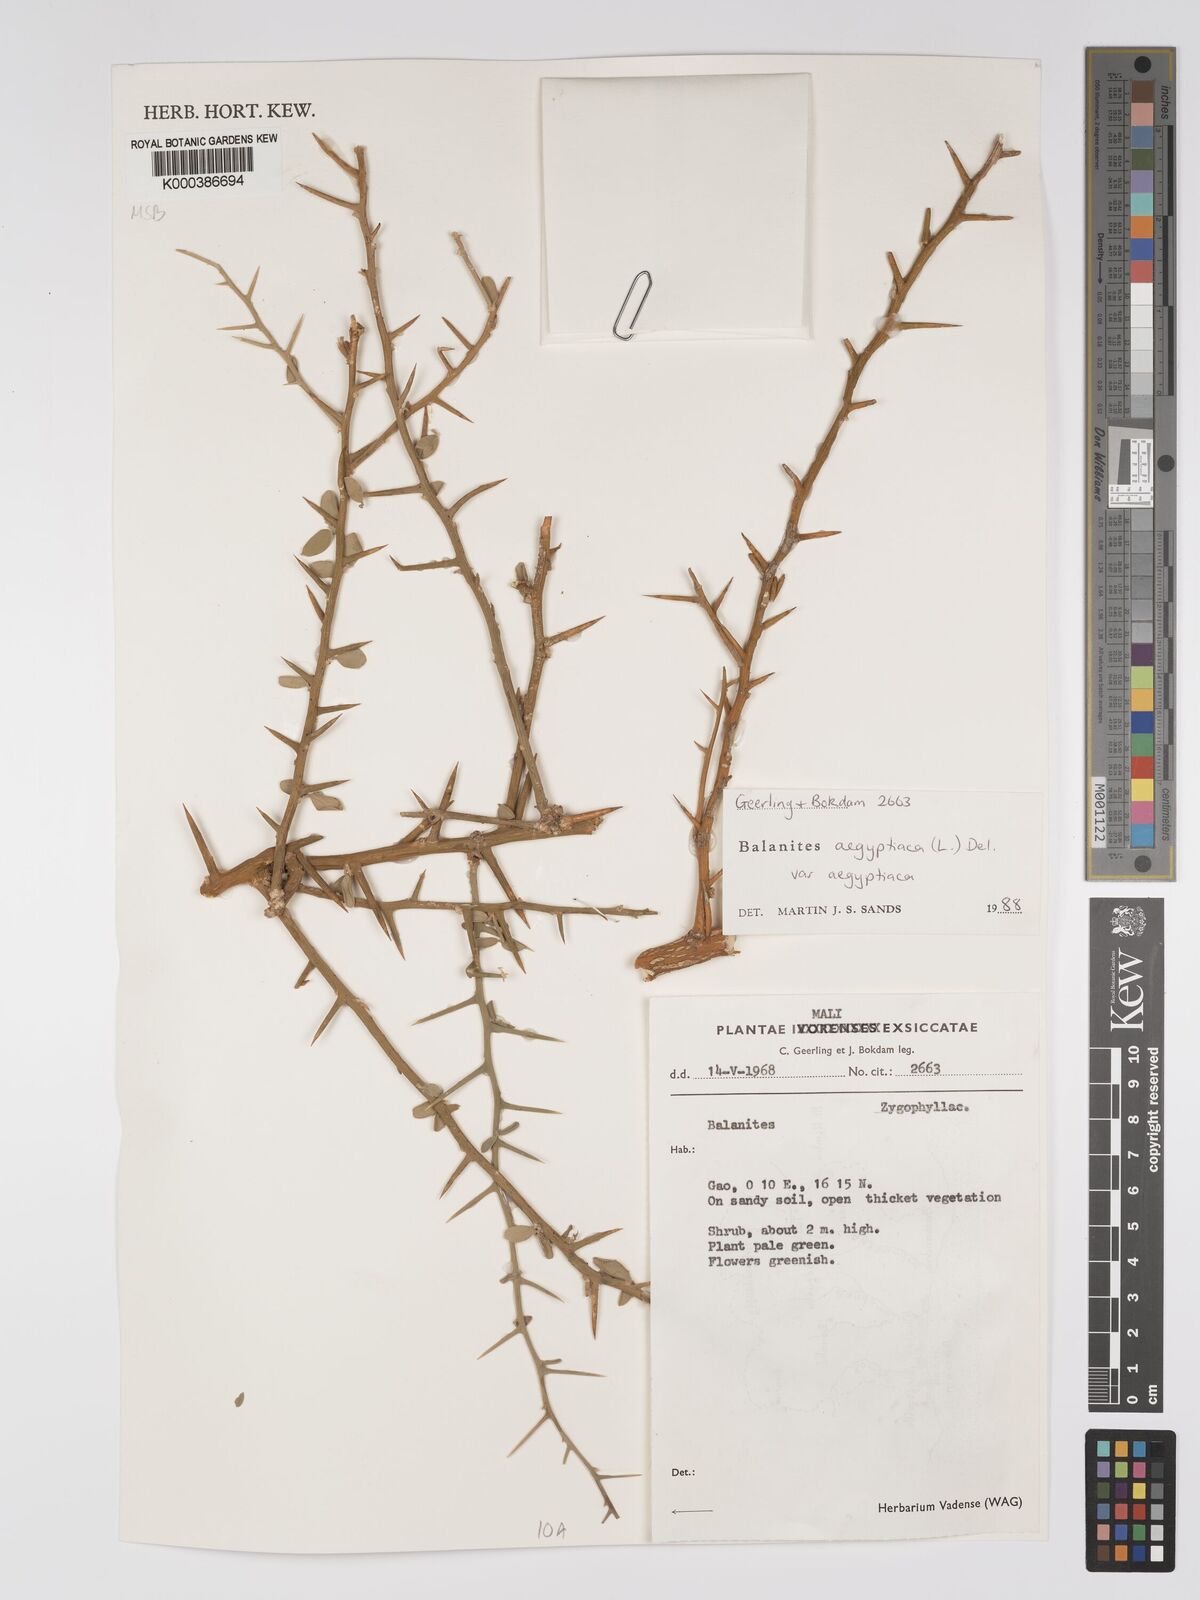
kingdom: Plantae
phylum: Tracheophyta
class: Magnoliopsida
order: Zygophyllales
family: Zygophyllaceae
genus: Balanites
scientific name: Balanites aegyptiaca
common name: Balanites
